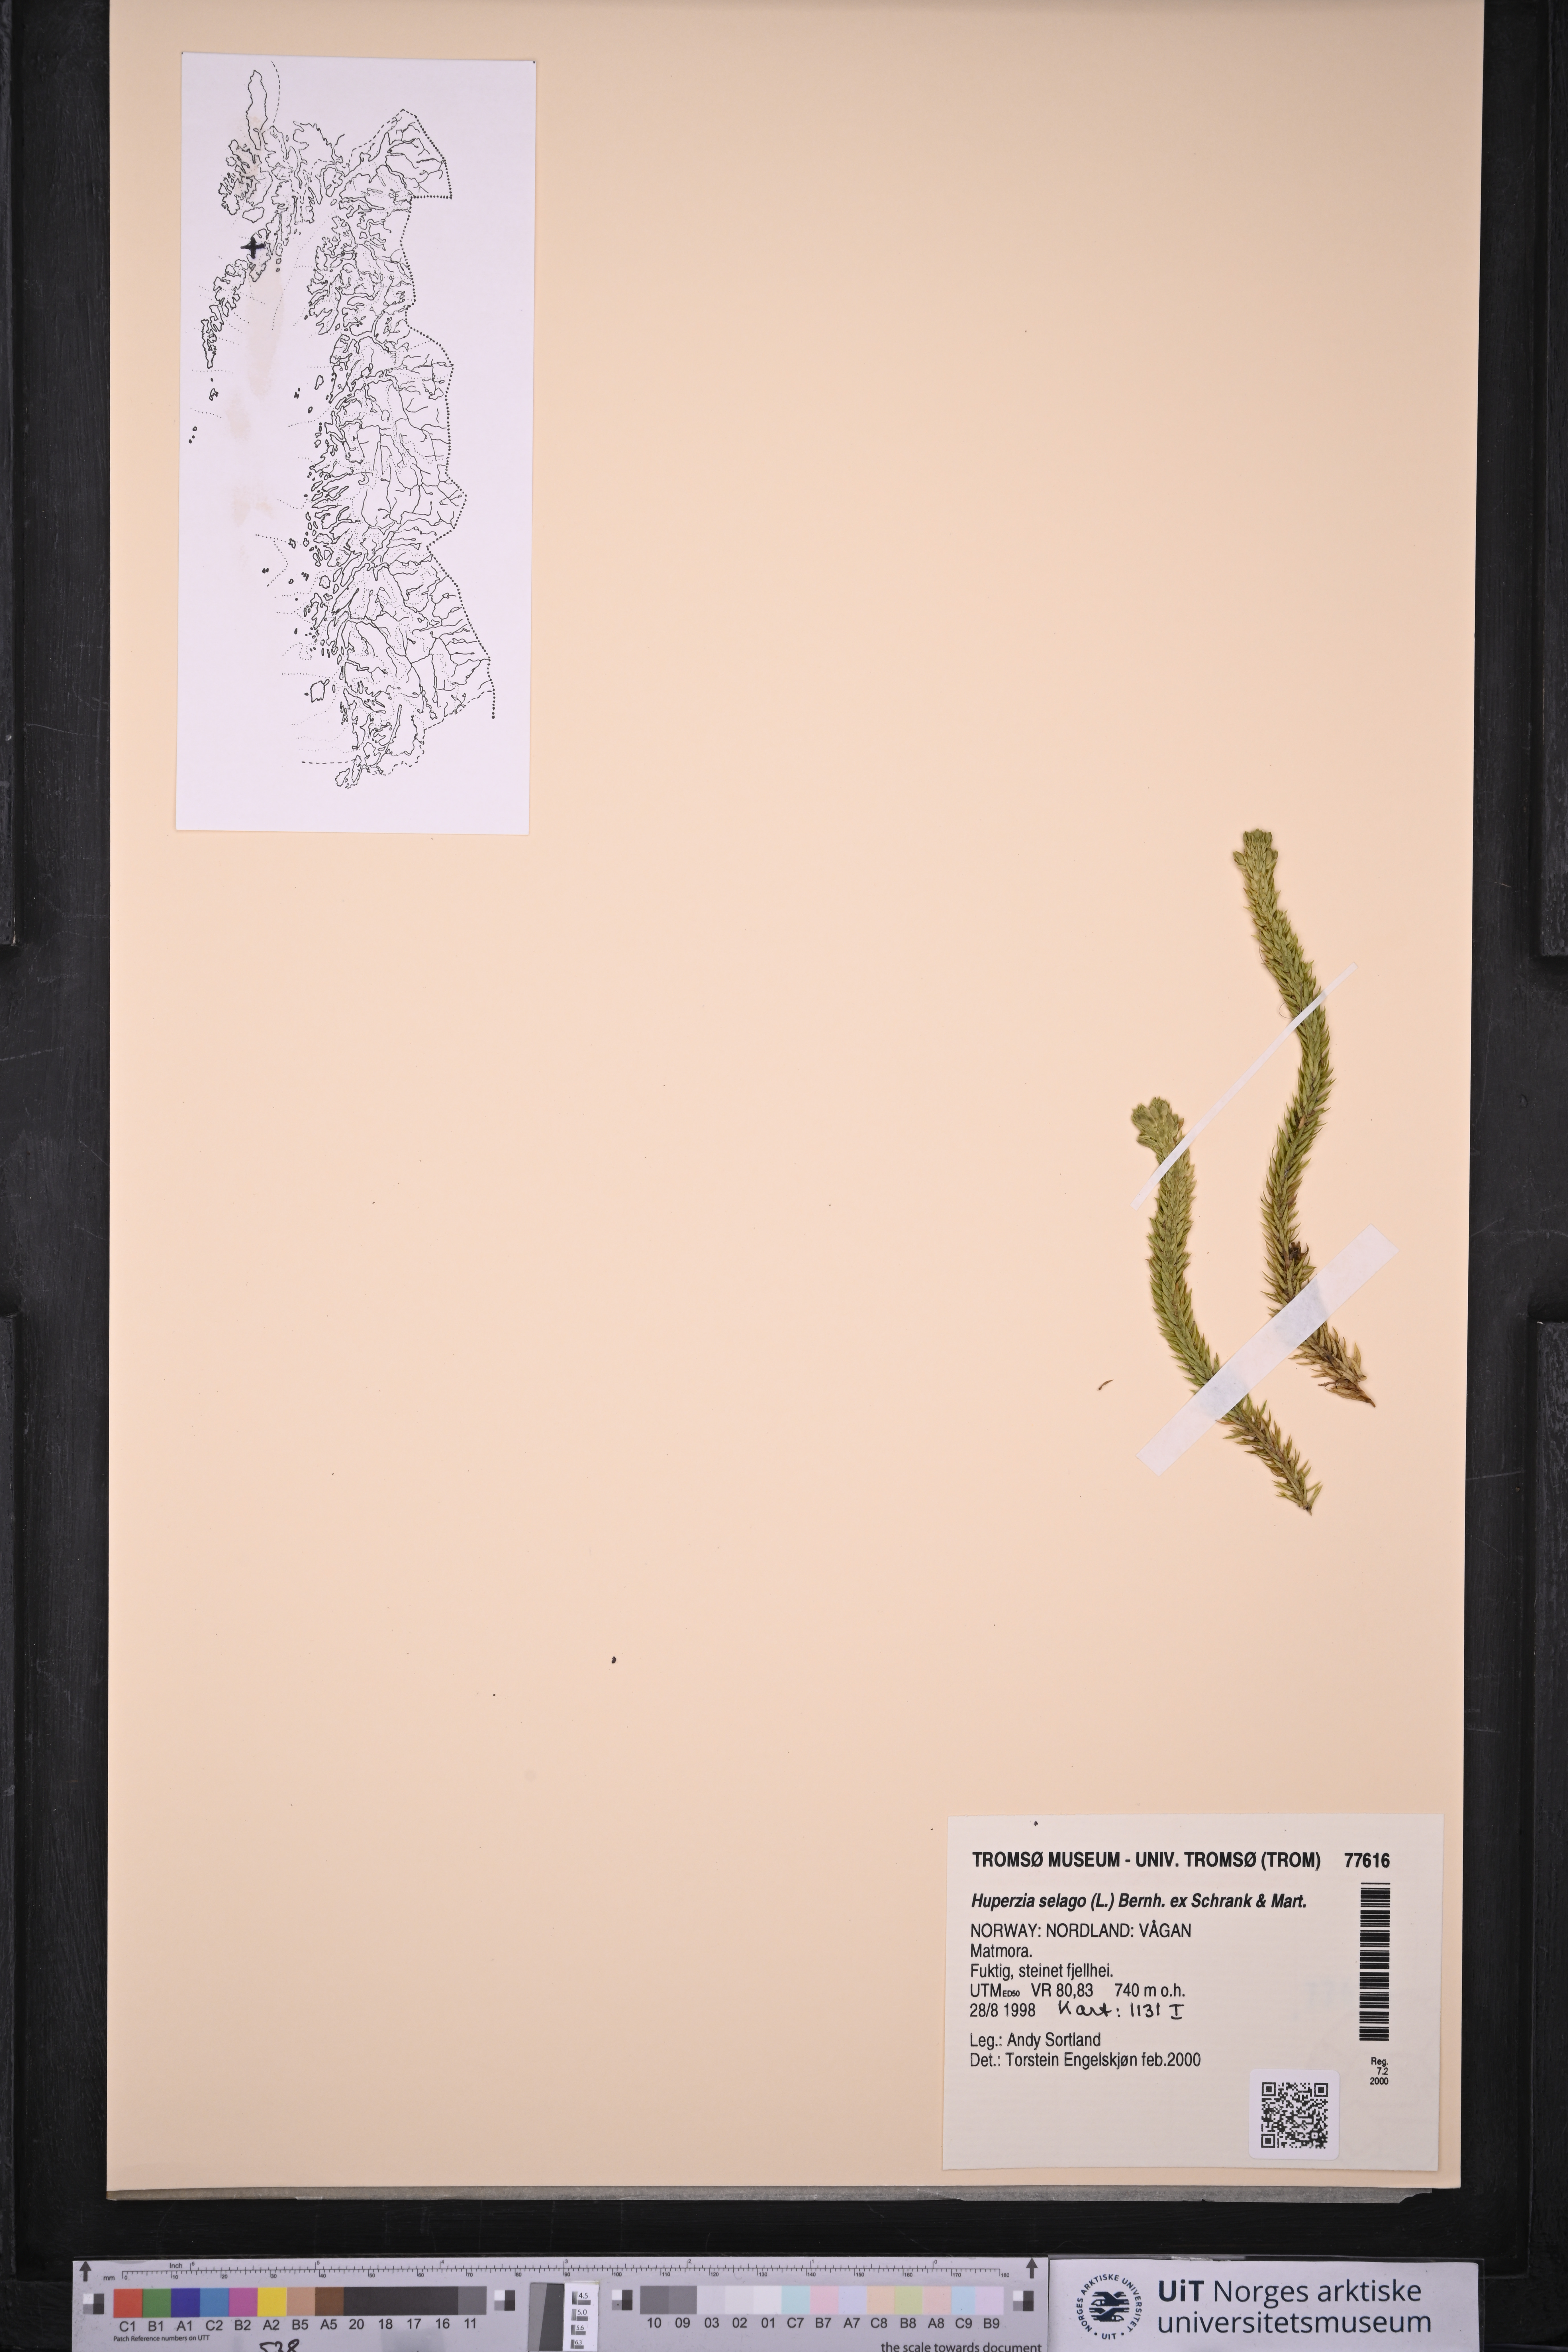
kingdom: Plantae
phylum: Tracheophyta
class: Lycopodiopsida
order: Lycopodiales
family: Lycopodiaceae
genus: Huperzia
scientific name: Huperzia selago
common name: Northern firmoss
